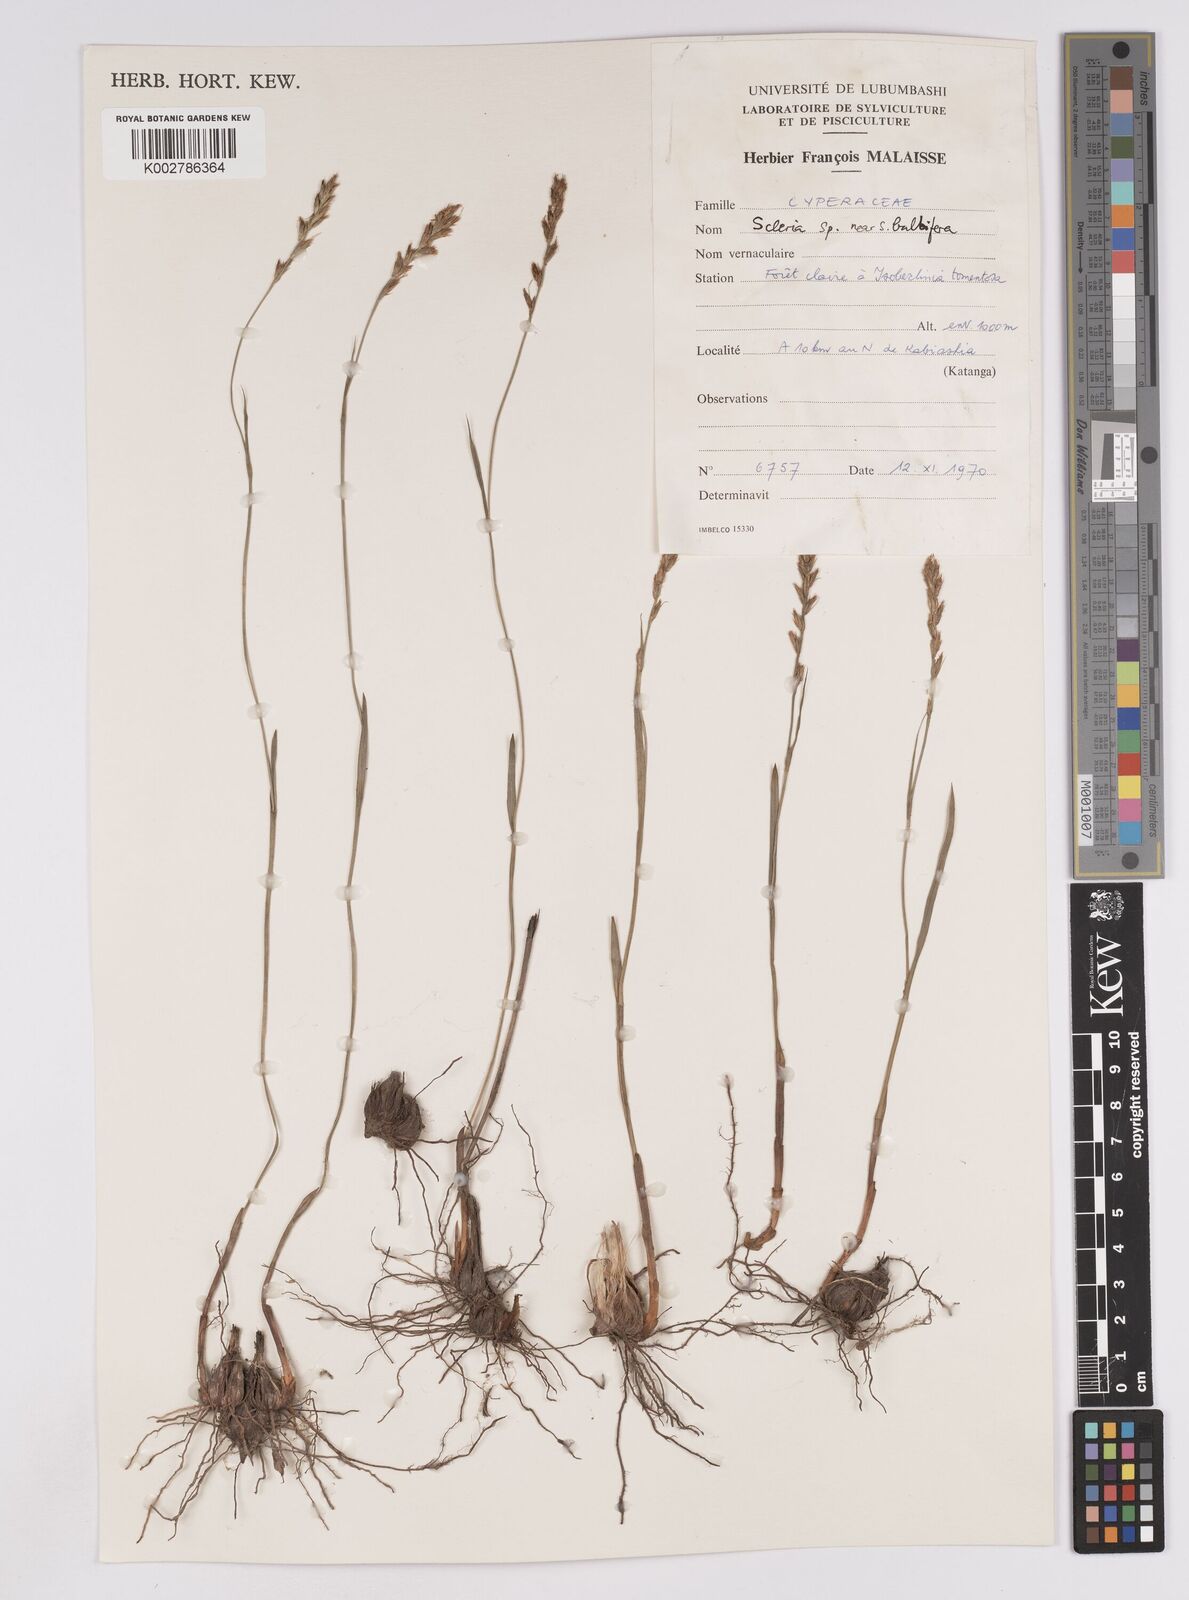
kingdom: Plantae
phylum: Tracheophyta
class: Liliopsida
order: Poales
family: Cyperaceae
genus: Scleria
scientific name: Scleria bulbifera
